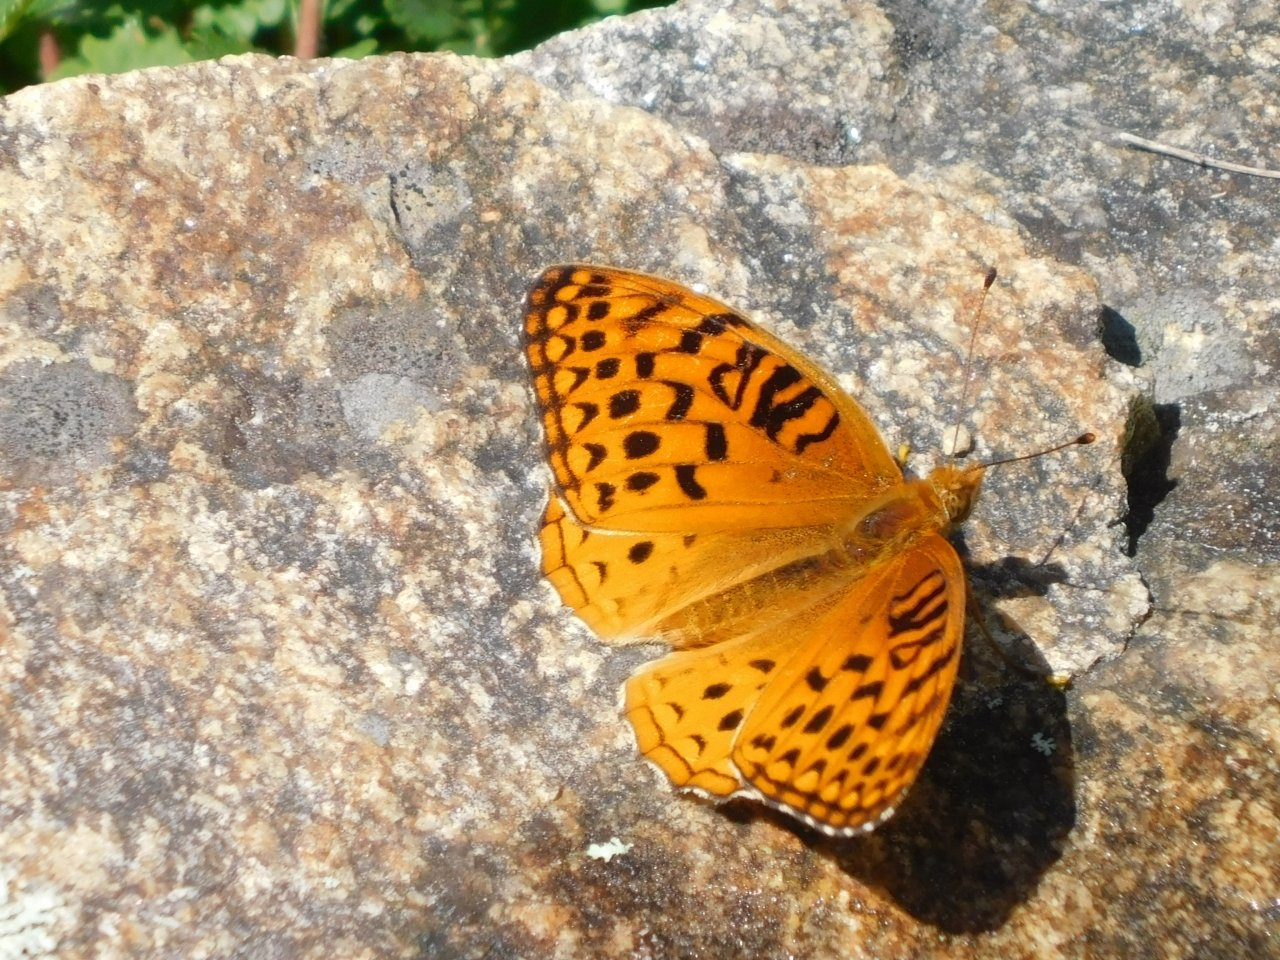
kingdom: Animalia
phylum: Arthropoda
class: Insecta
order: Lepidoptera
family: Nymphalidae
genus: Speyeria
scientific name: Speyeria aphrodite
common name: Aphrodite Fritillary
